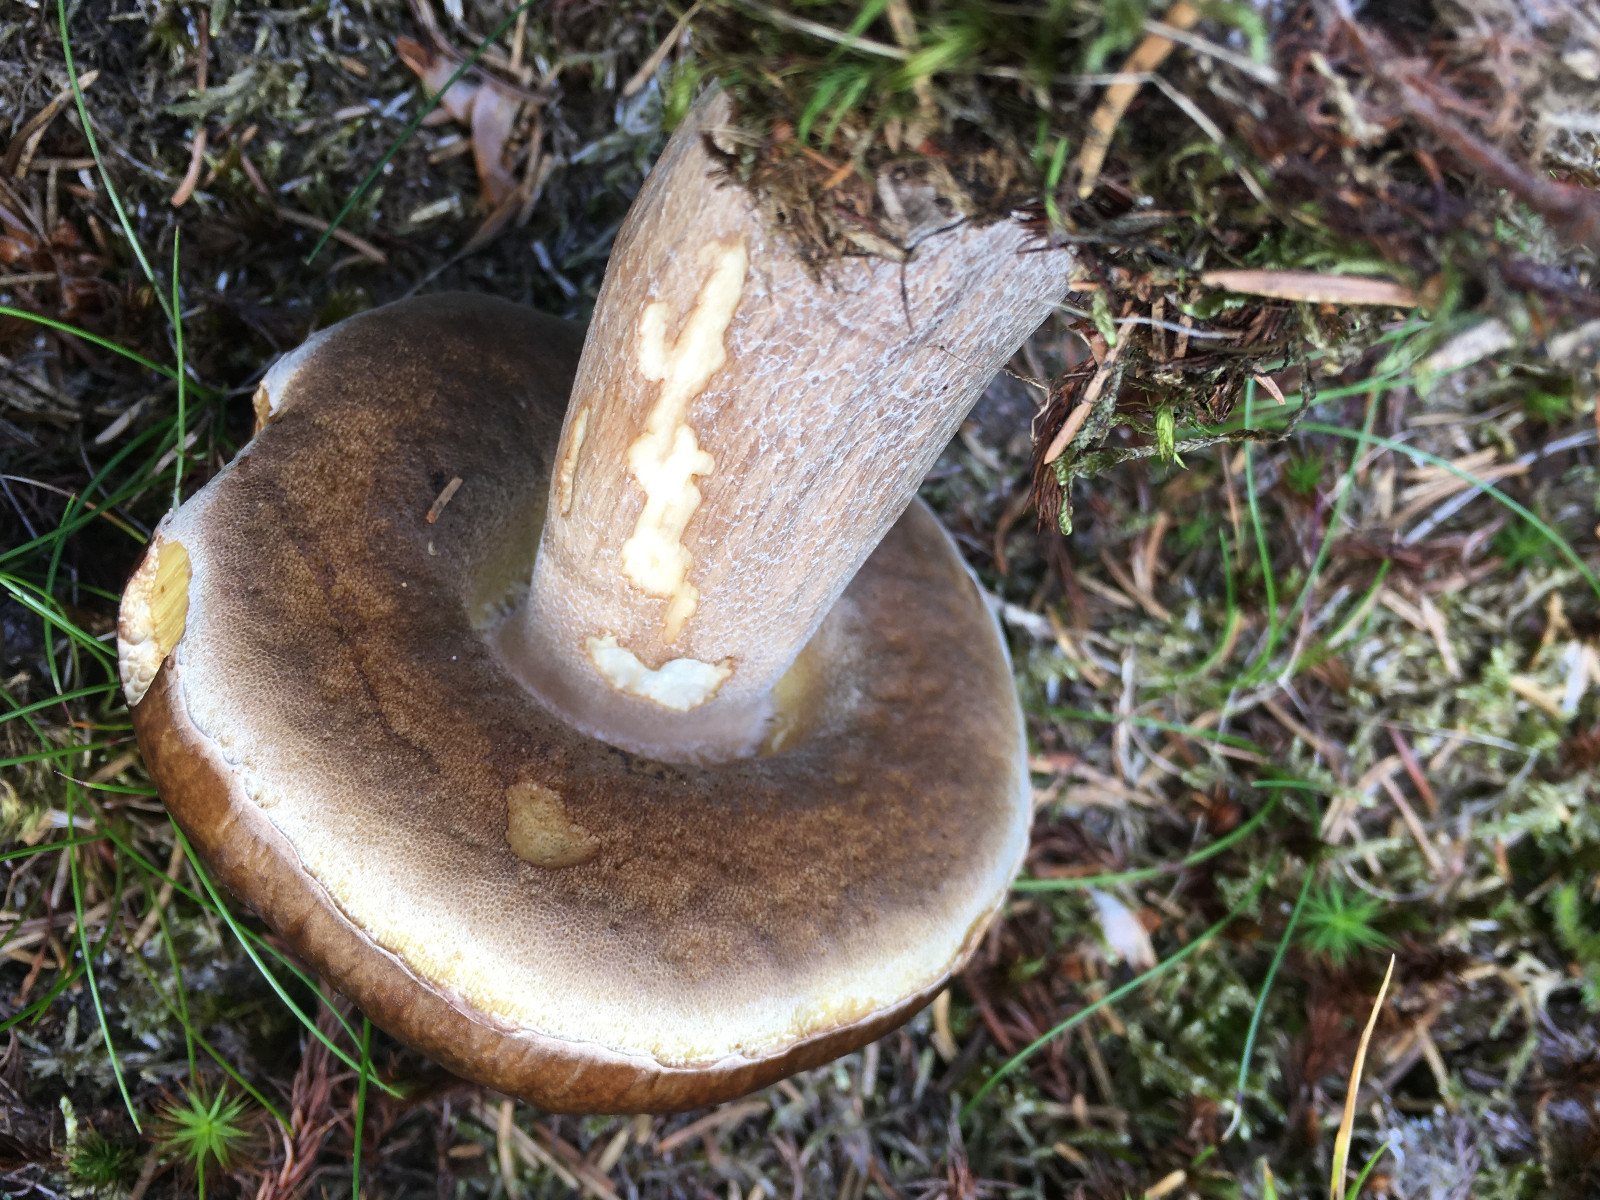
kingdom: Fungi
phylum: Basidiomycota
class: Agaricomycetes
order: Boletales
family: Boletaceae
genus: Boletus
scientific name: Boletus edulis
